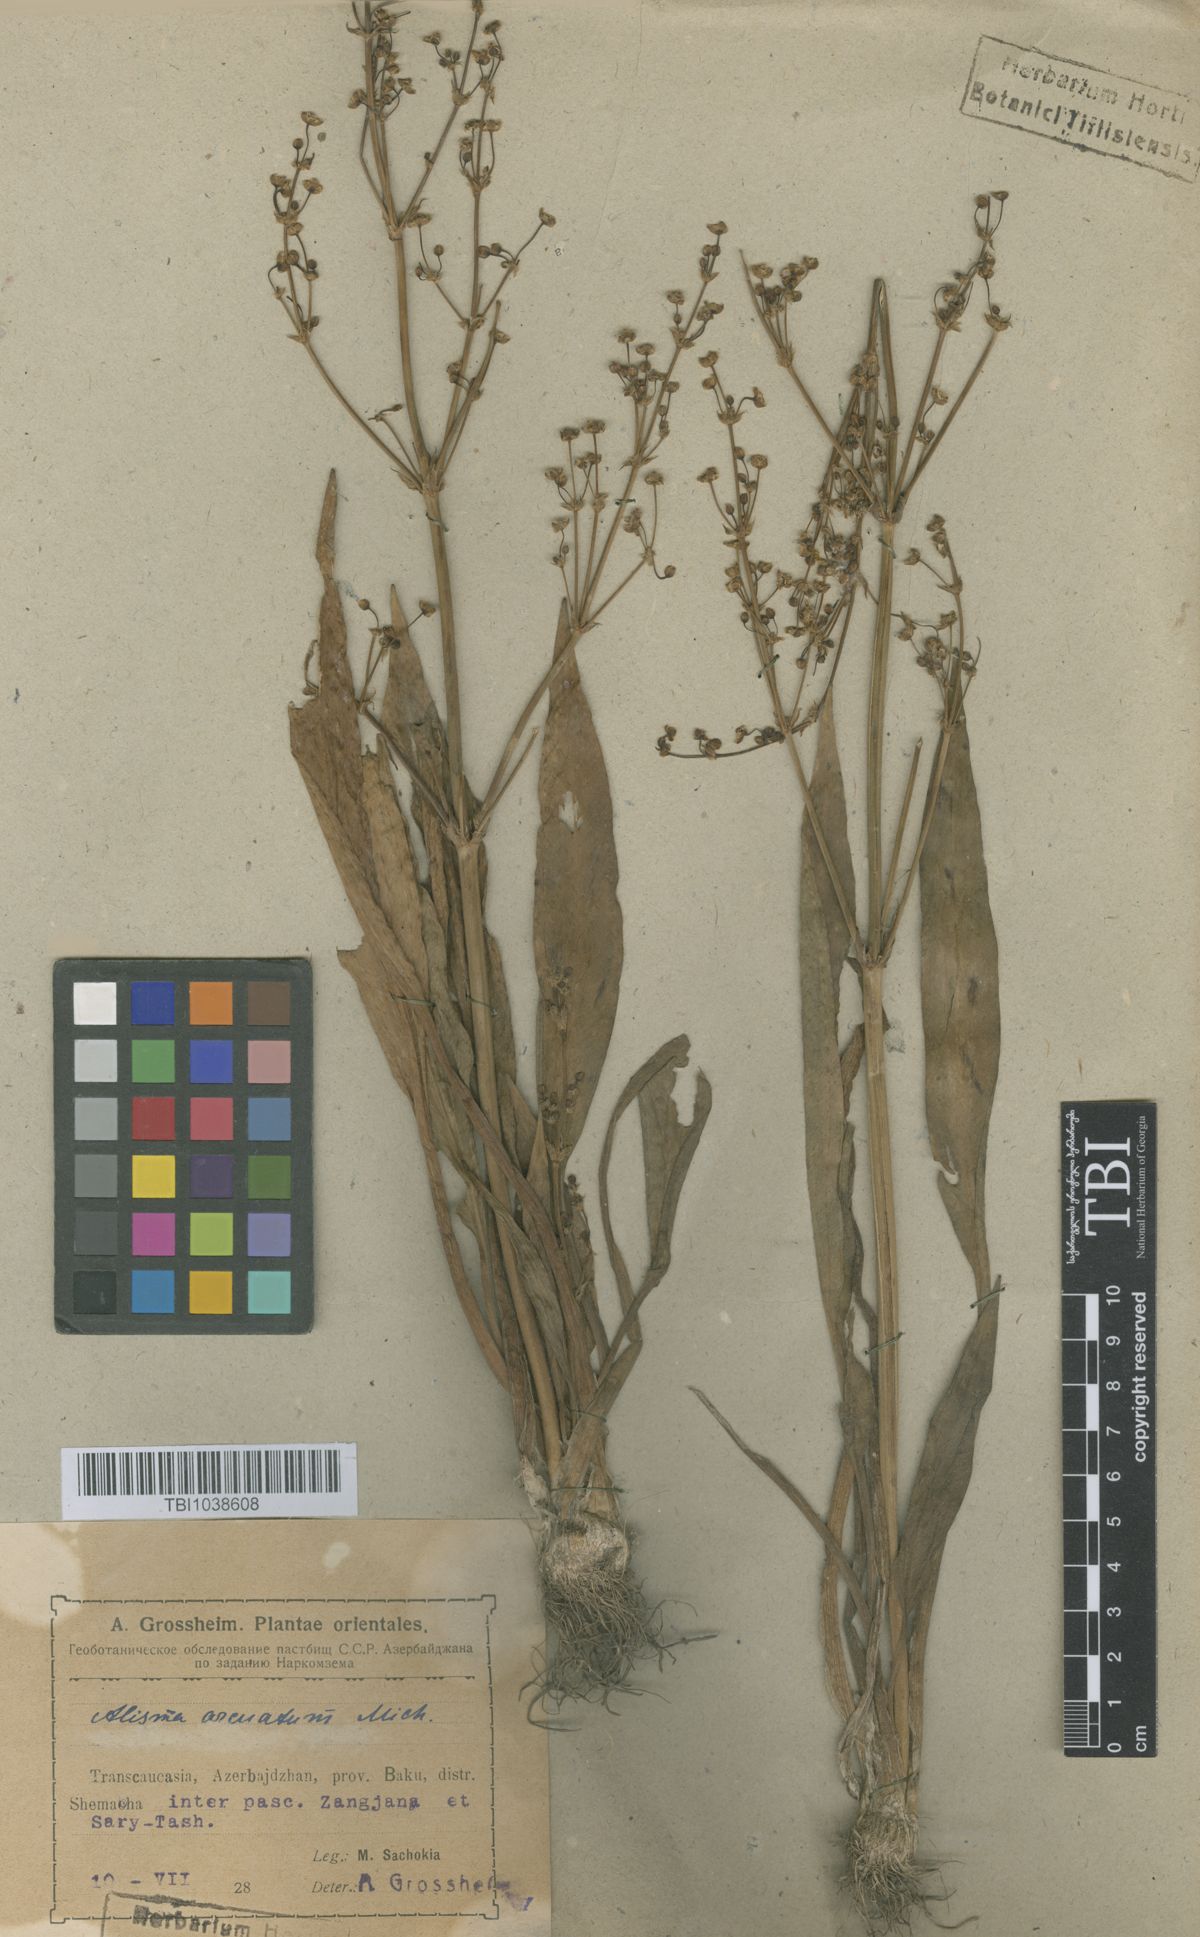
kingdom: Plantae
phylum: Tracheophyta
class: Liliopsida
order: Alismatales
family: Alismataceae
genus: Alisma
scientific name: Alisma gramineum
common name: Ribbon-leaved water-plantain
